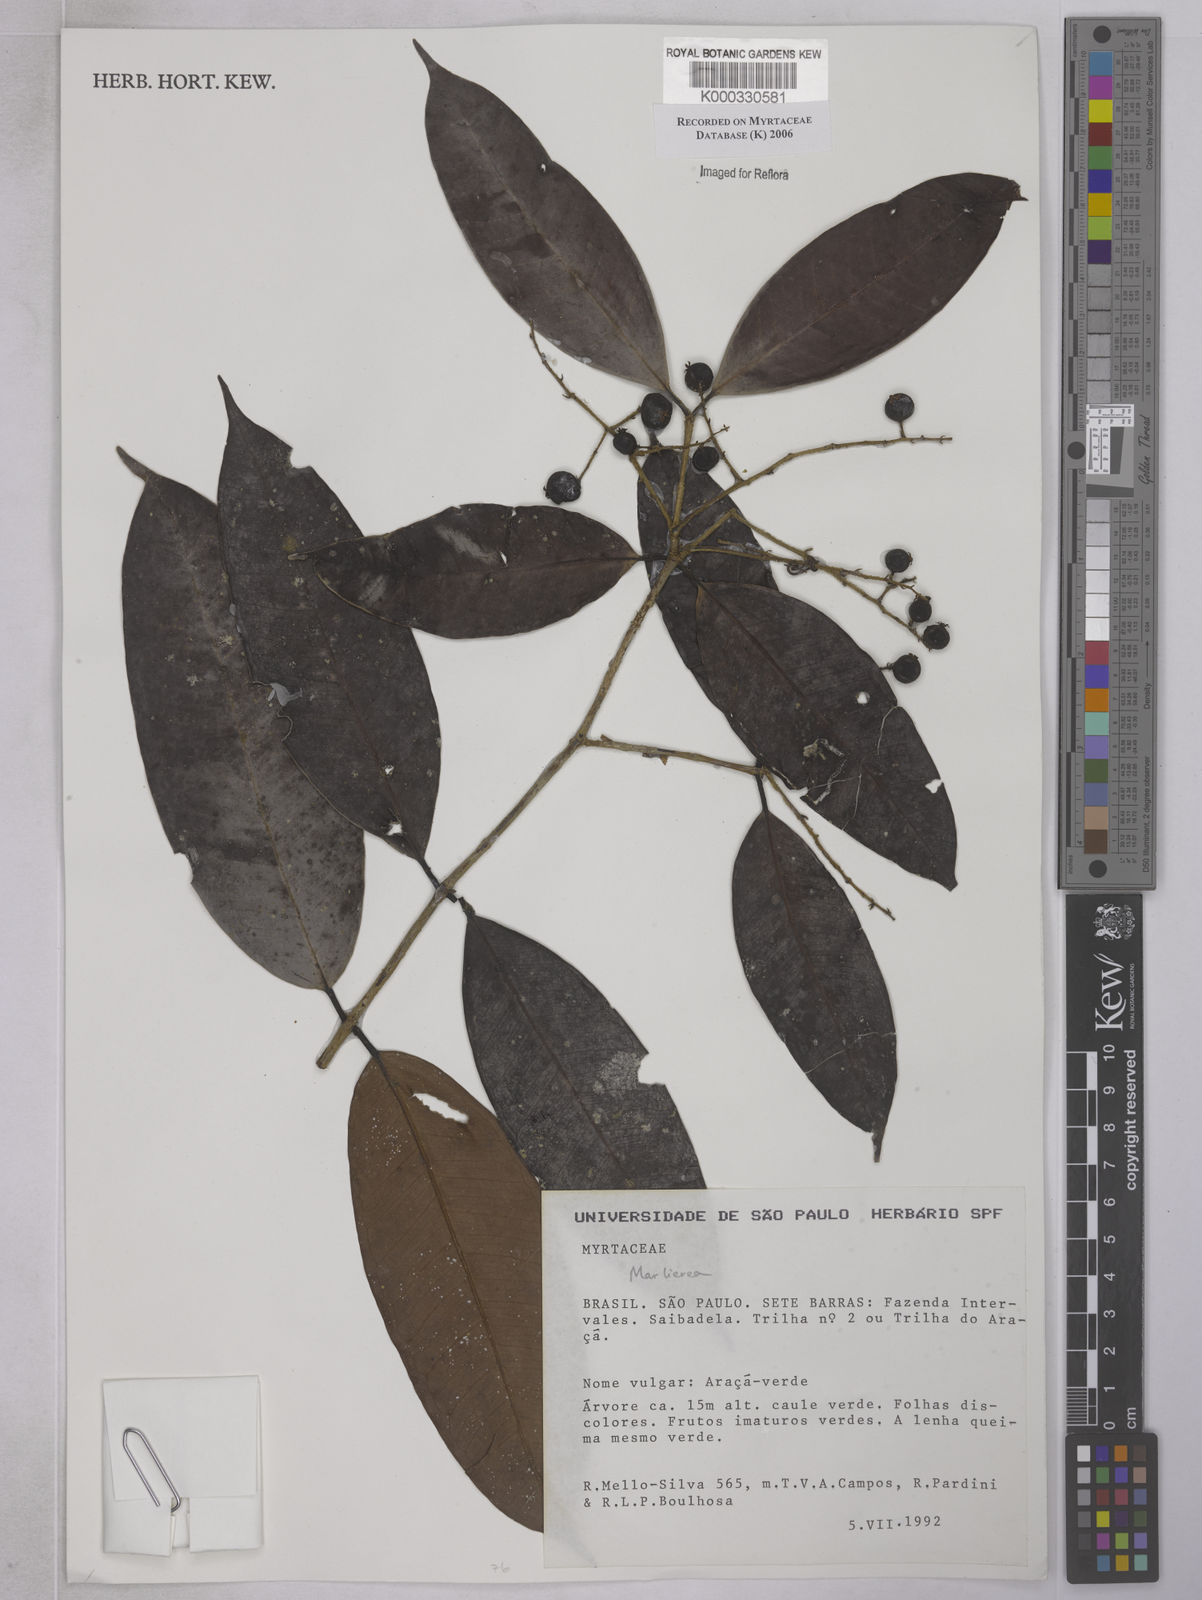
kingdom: Plantae
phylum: Tracheophyta
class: Magnoliopsida
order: Myrtales
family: Myrtaceae
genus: Myrcia
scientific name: Myrcia neoriedeliana
